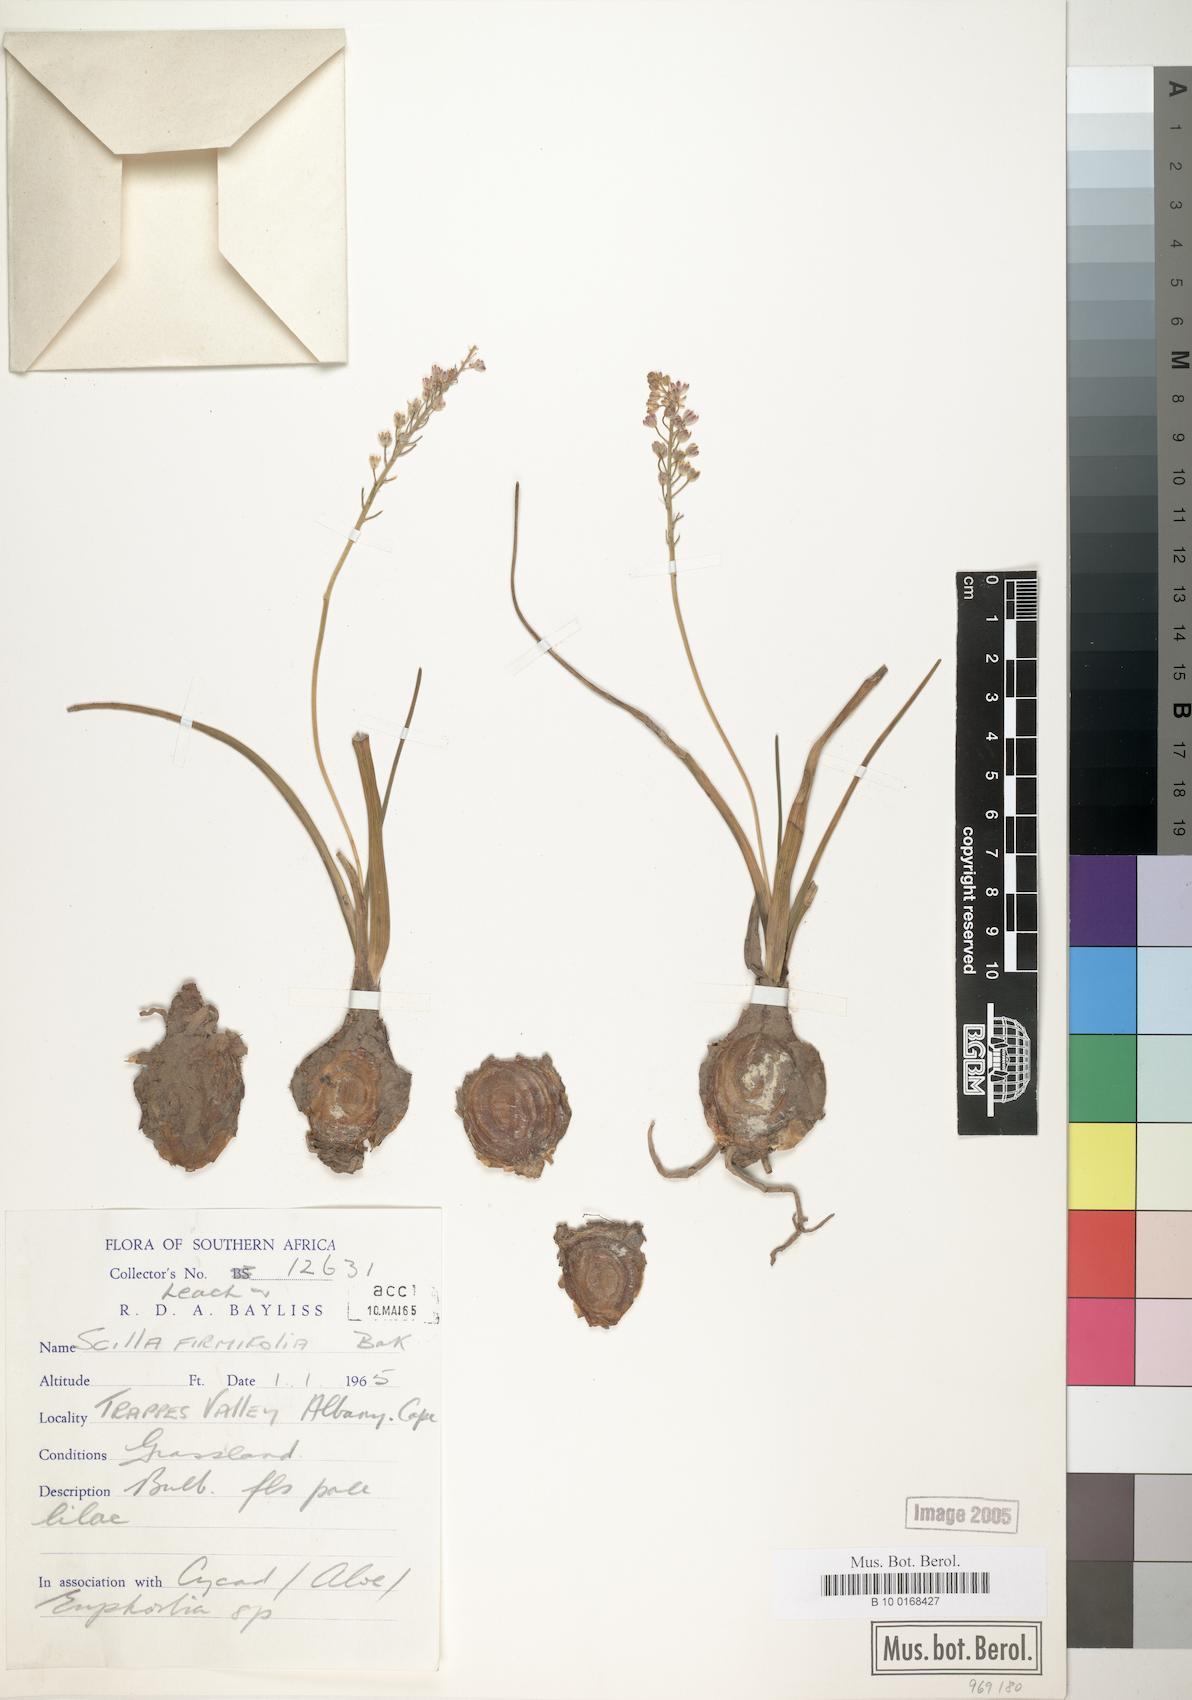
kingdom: Plantae
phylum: Tracheophyta
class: Liliopsida
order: Asparagales
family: Asparagaceae
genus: Pseudoprospero
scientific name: Pseudoprospero firmifolium
